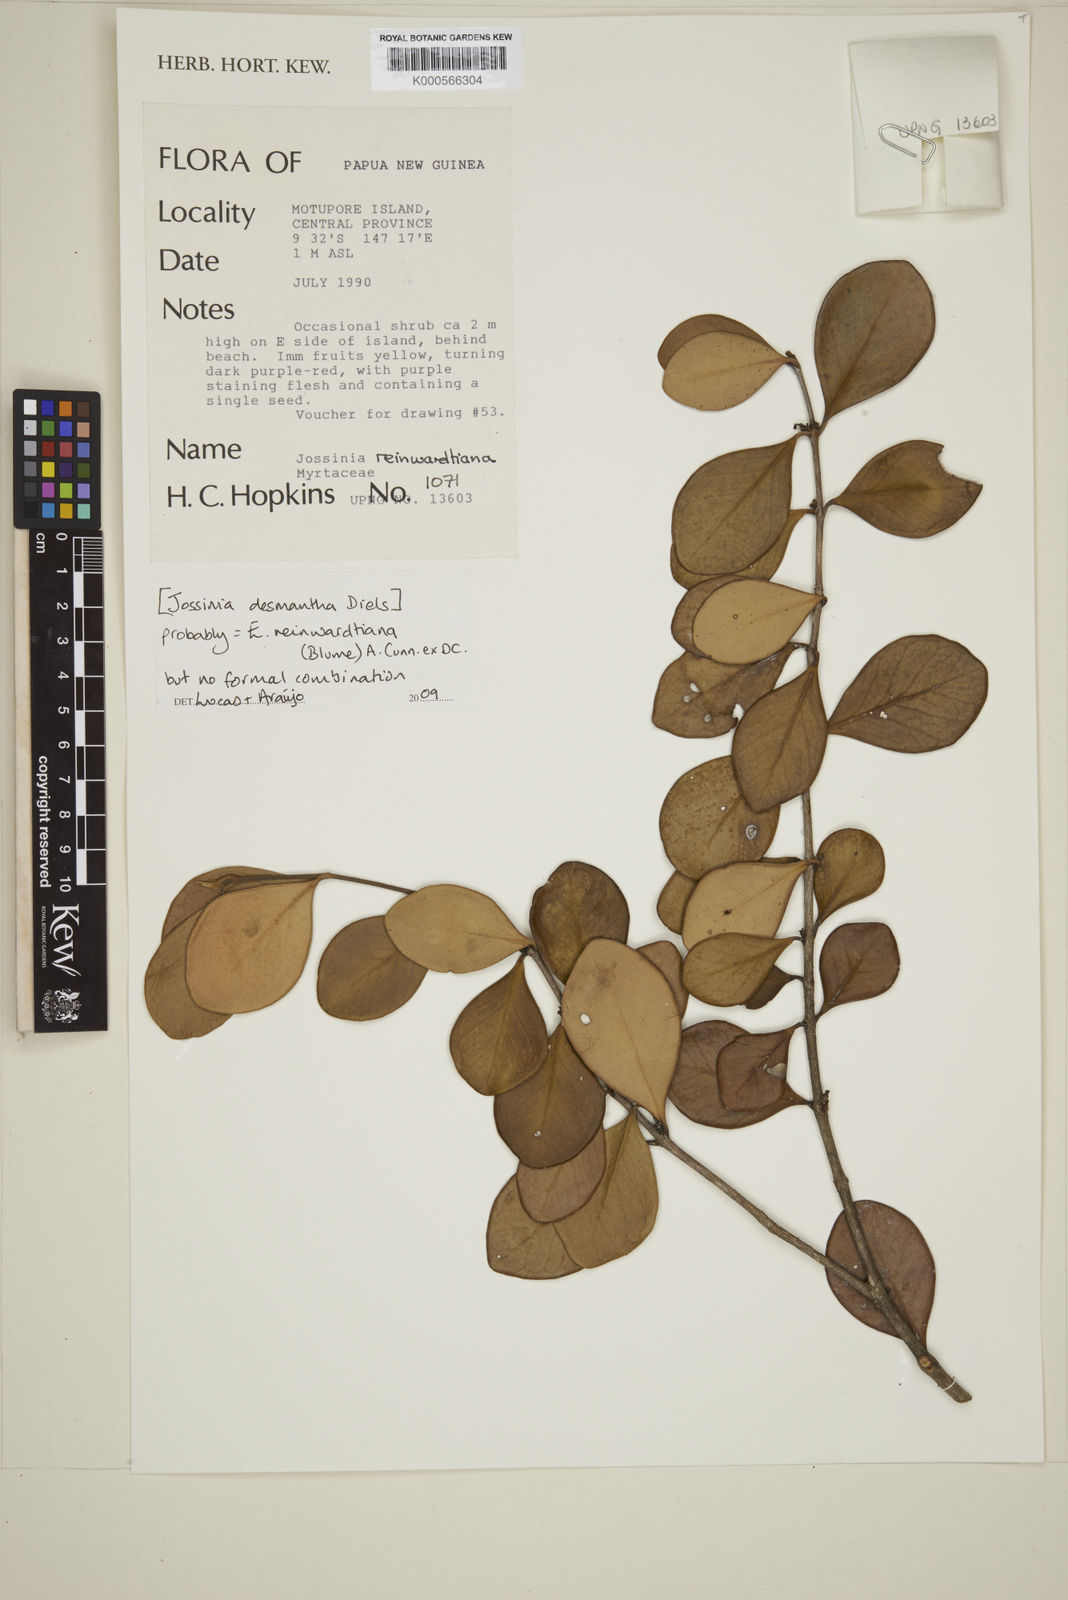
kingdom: Plantae
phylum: Tracheophyta
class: Magnoliopsida
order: Myrtales
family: Myrtaceae
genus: Eugenia
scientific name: Eugenia reinwardtiana
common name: Cedar bay-cherry
